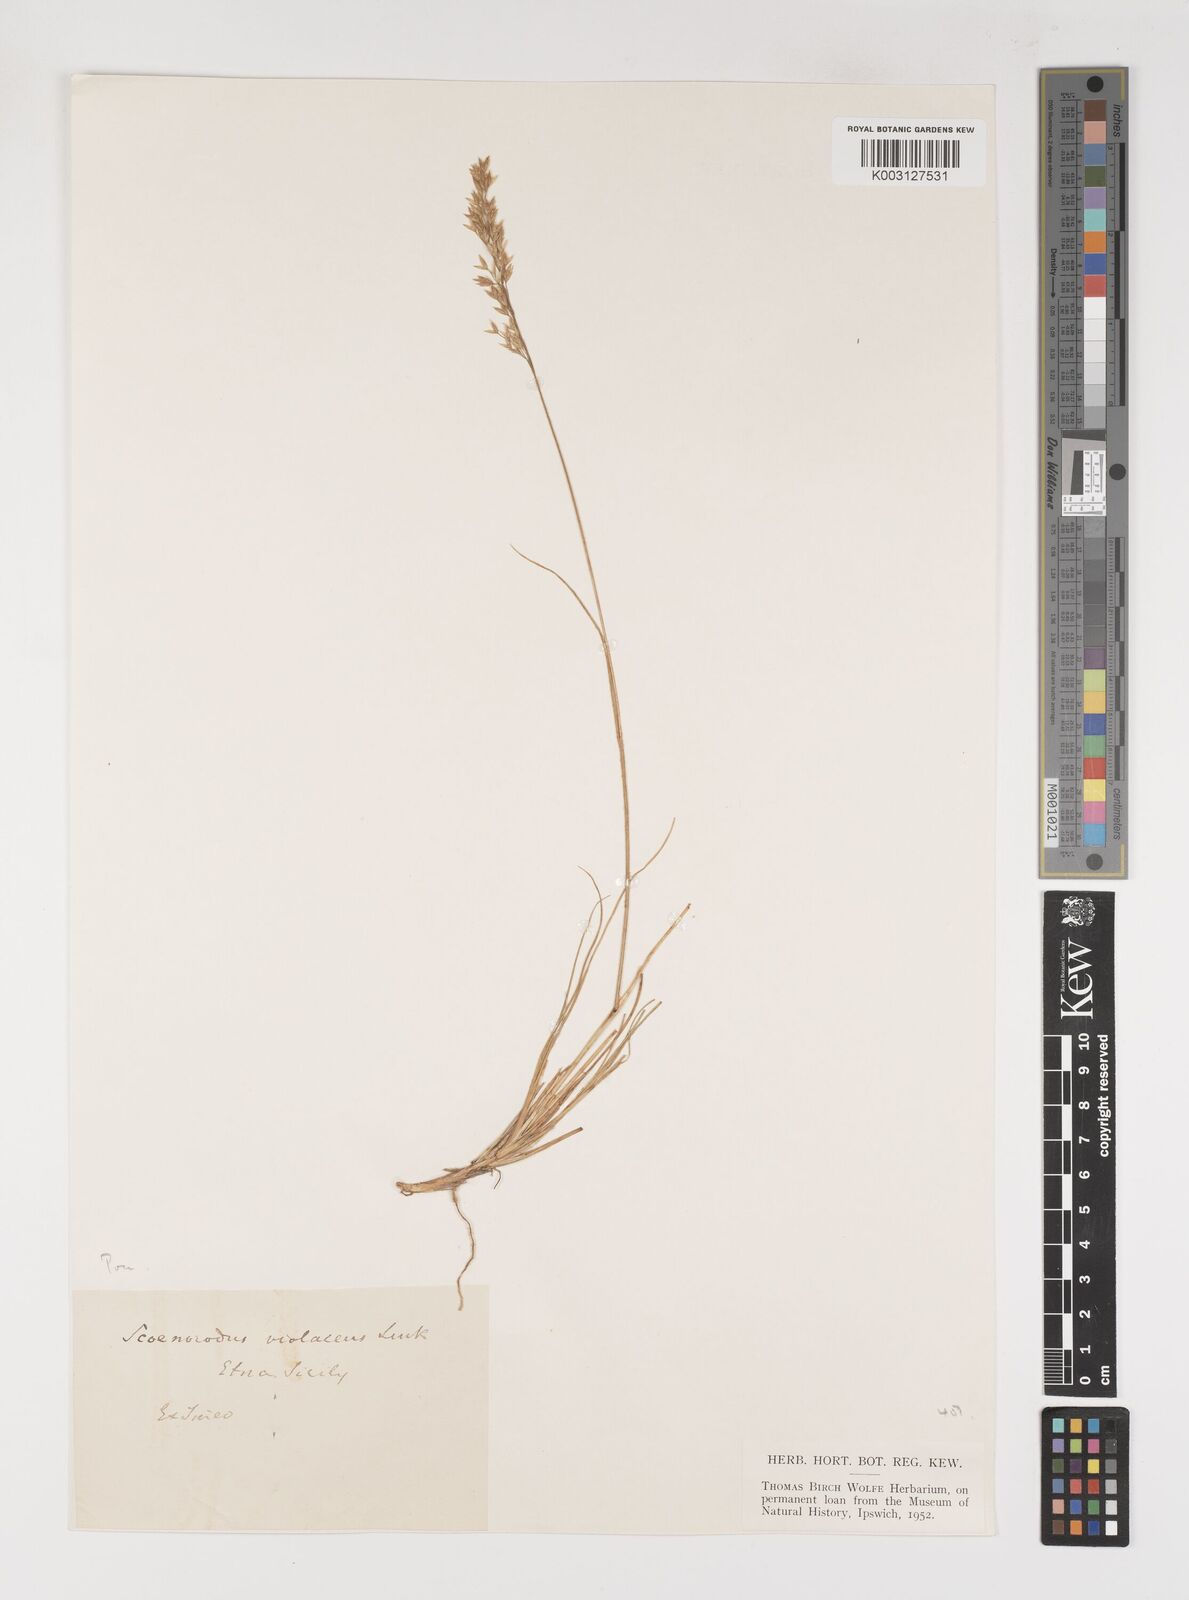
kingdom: Plantae
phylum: Tracheophyta
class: Liliopsida
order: Poales
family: Poaceae
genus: Bellardiochloa
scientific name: Bellardiochloa variegata
